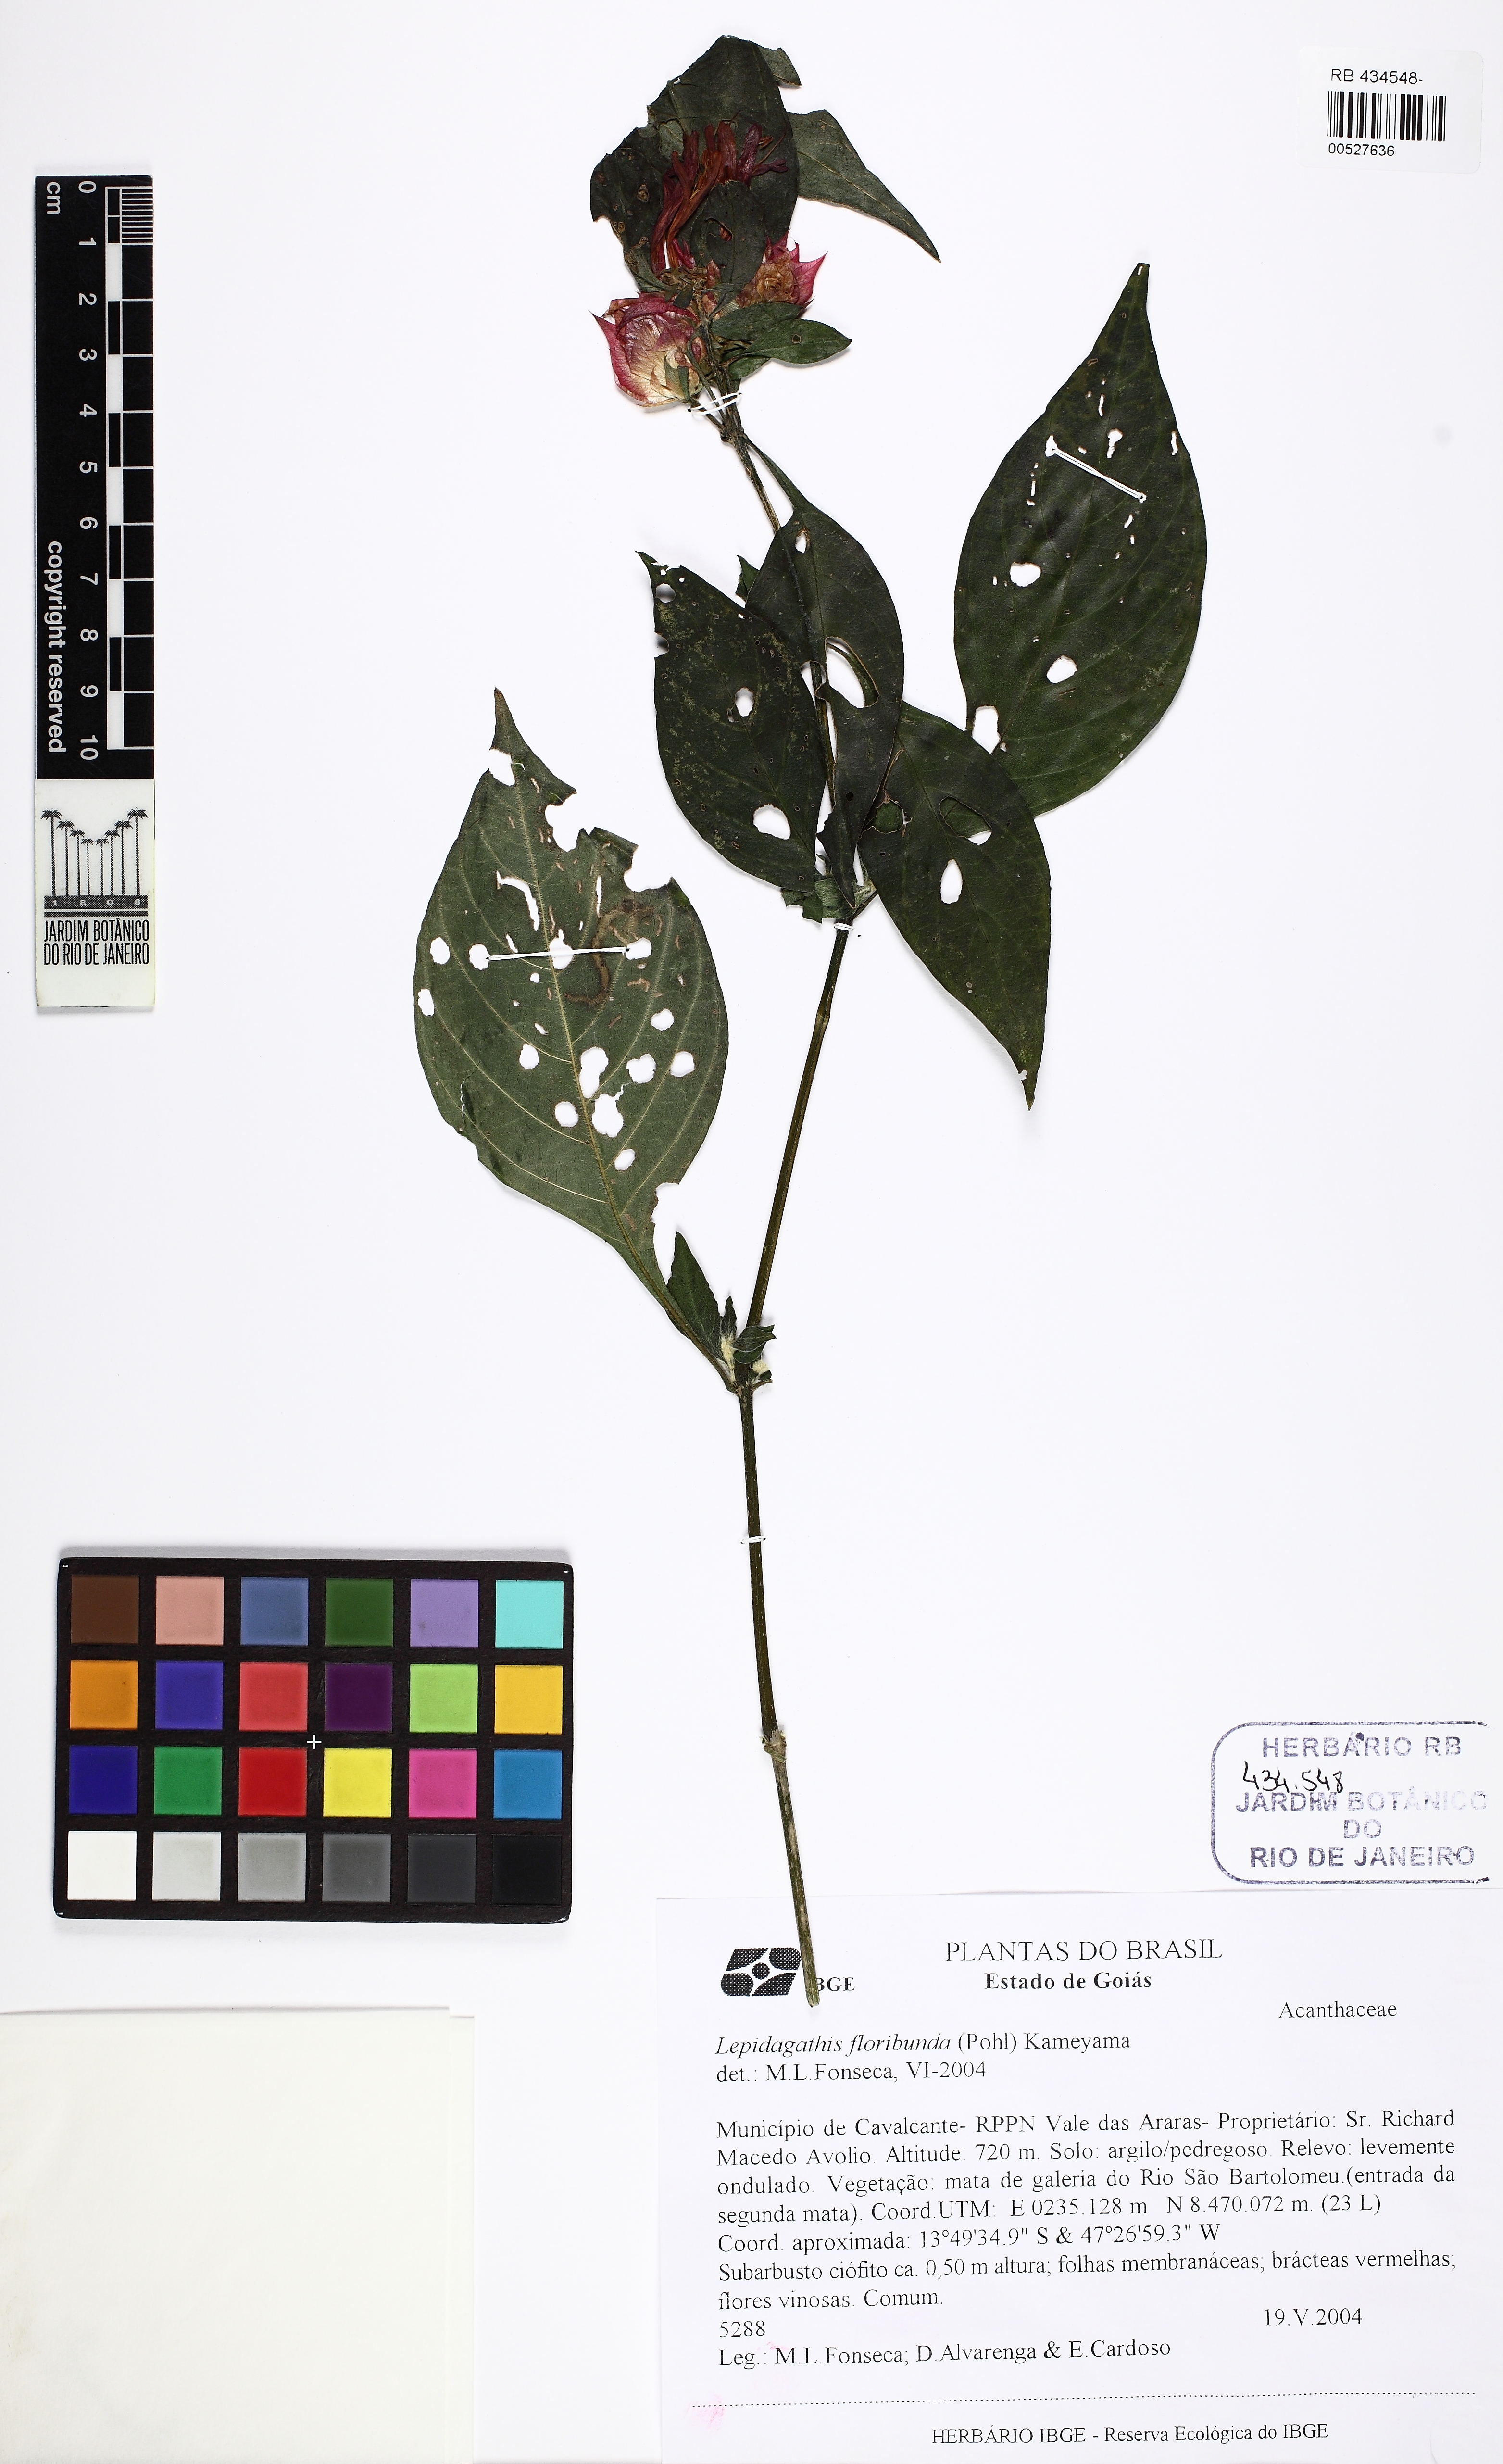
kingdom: Plantae
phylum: Tracheophyta
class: Magnoliopsida
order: Lamiales
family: Acanthaceae
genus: Lepidagathis
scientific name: Lepidagathis floribunda
